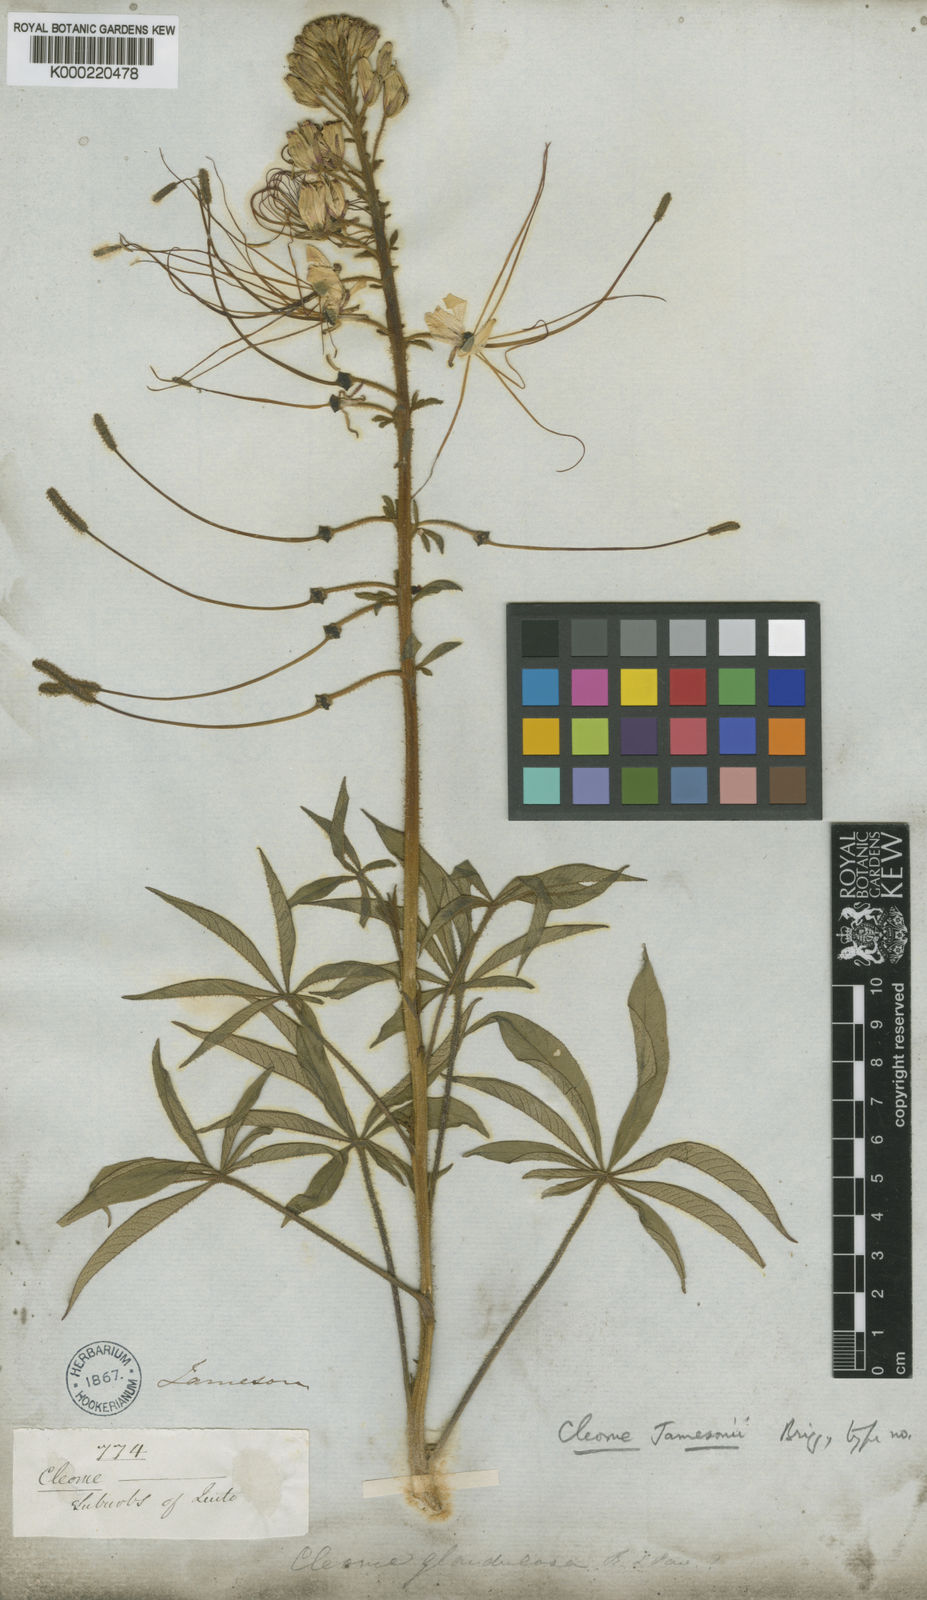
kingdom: Plantae
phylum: Tracheophyta
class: Magnoliopsida
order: Brassicales
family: Cleomaceae
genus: Andinocleome
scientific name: Andinocleome glandulosa
